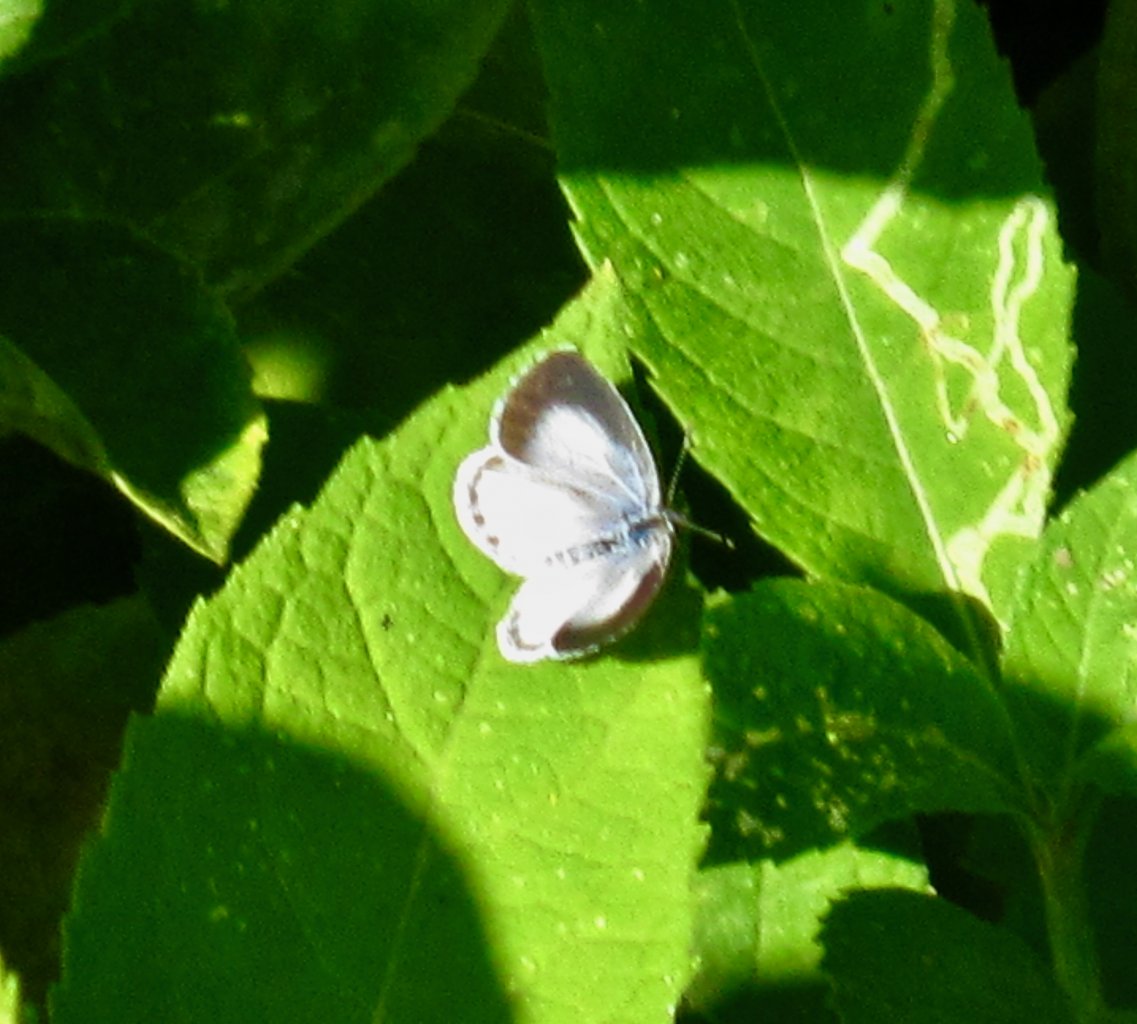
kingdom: Animalia
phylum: Arthropoda
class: Insecta
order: Lepidoptera
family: Lycaenidae
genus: Cyaniris
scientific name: Cyaniris neglecta
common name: Summer Azure
